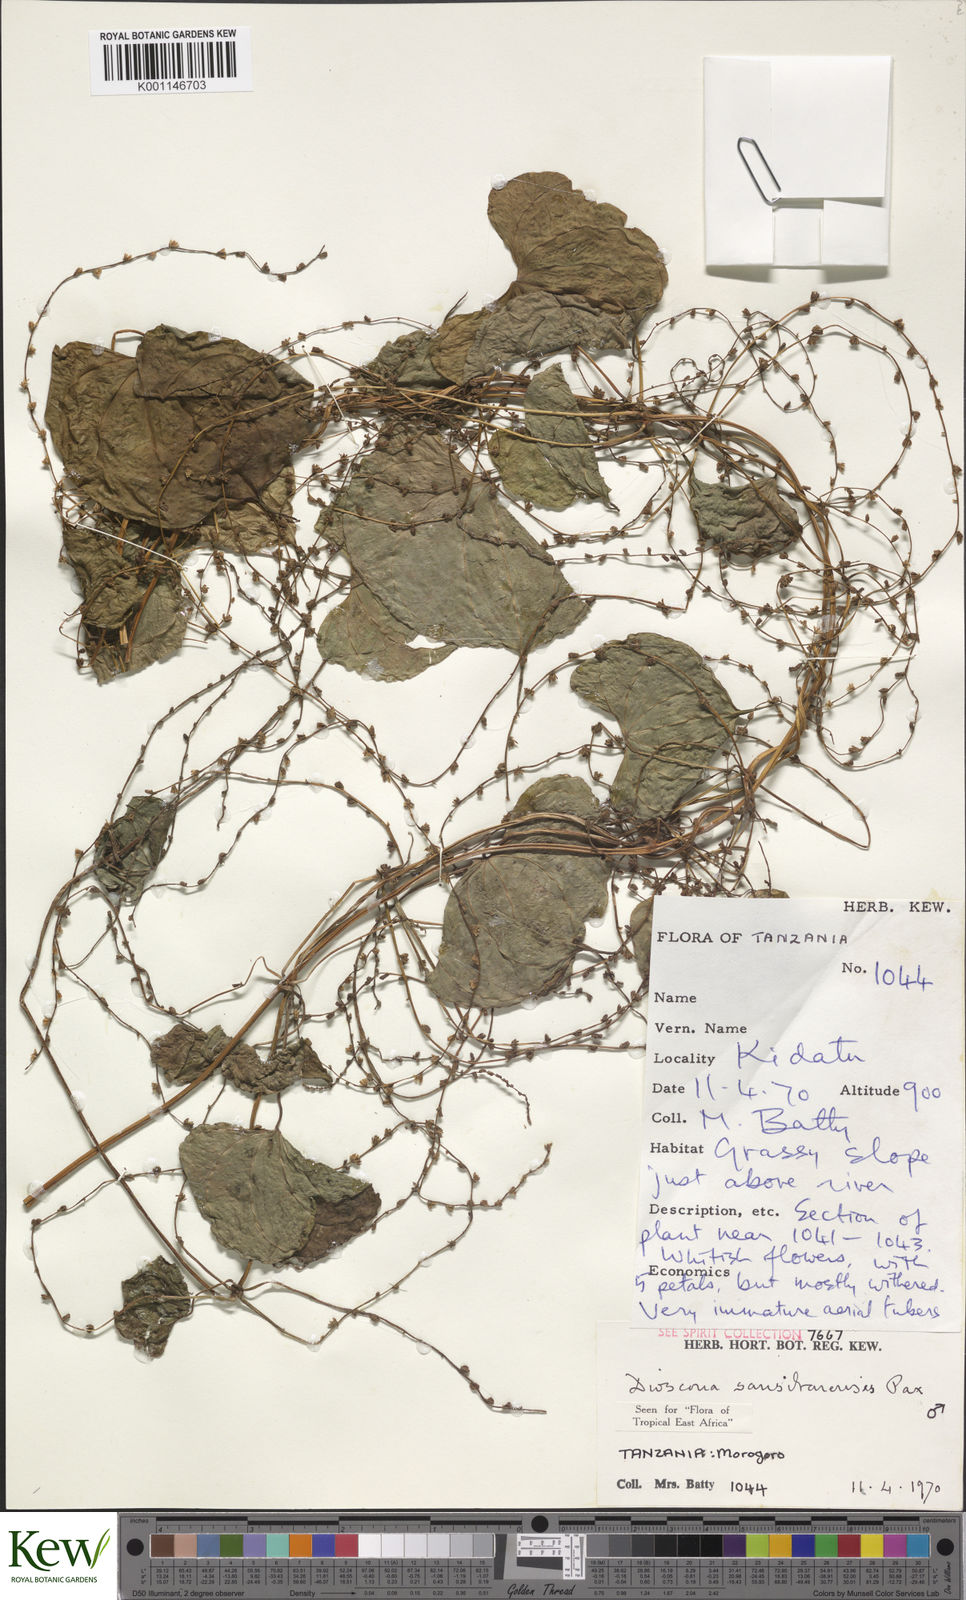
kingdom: Plantae
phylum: Tracheophyta
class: Liliopsida
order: Dioscoreales
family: Dioscoreaceae
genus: Dioscorea
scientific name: Dioscorea sansibarensis
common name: Zanzibar yam
